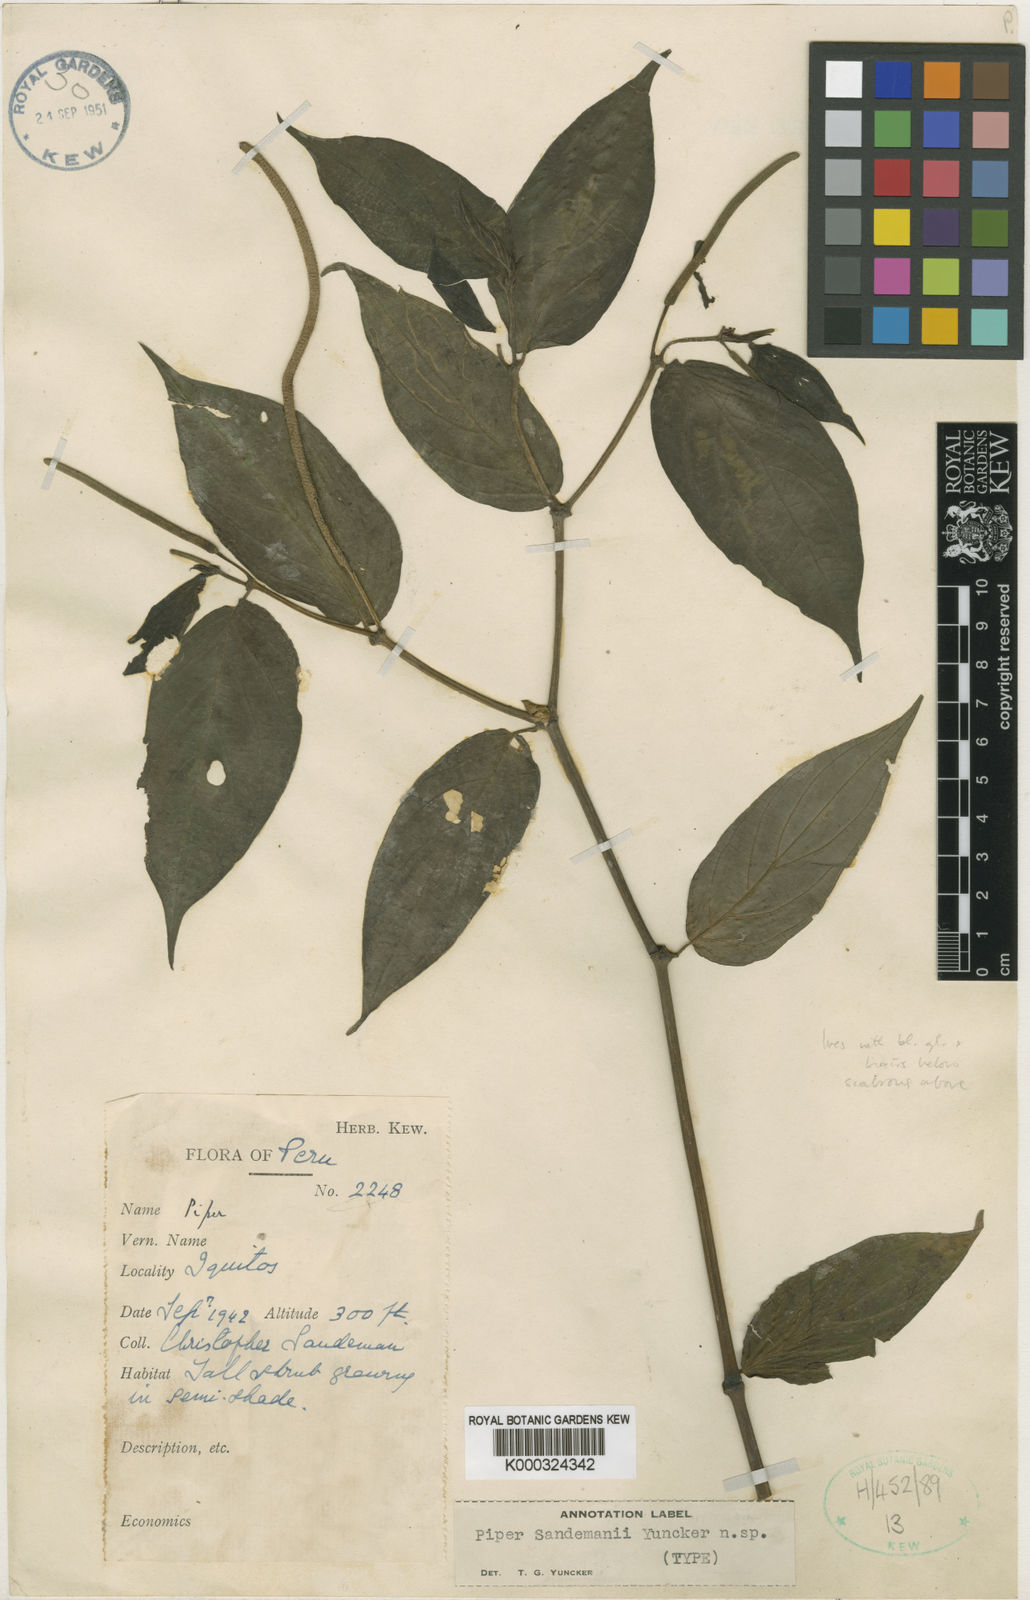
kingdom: Plantae
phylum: Tracheophyta
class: Magnoliopsida
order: Piperales
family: Piperaceae
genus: Piper
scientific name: Piper silvivagum
